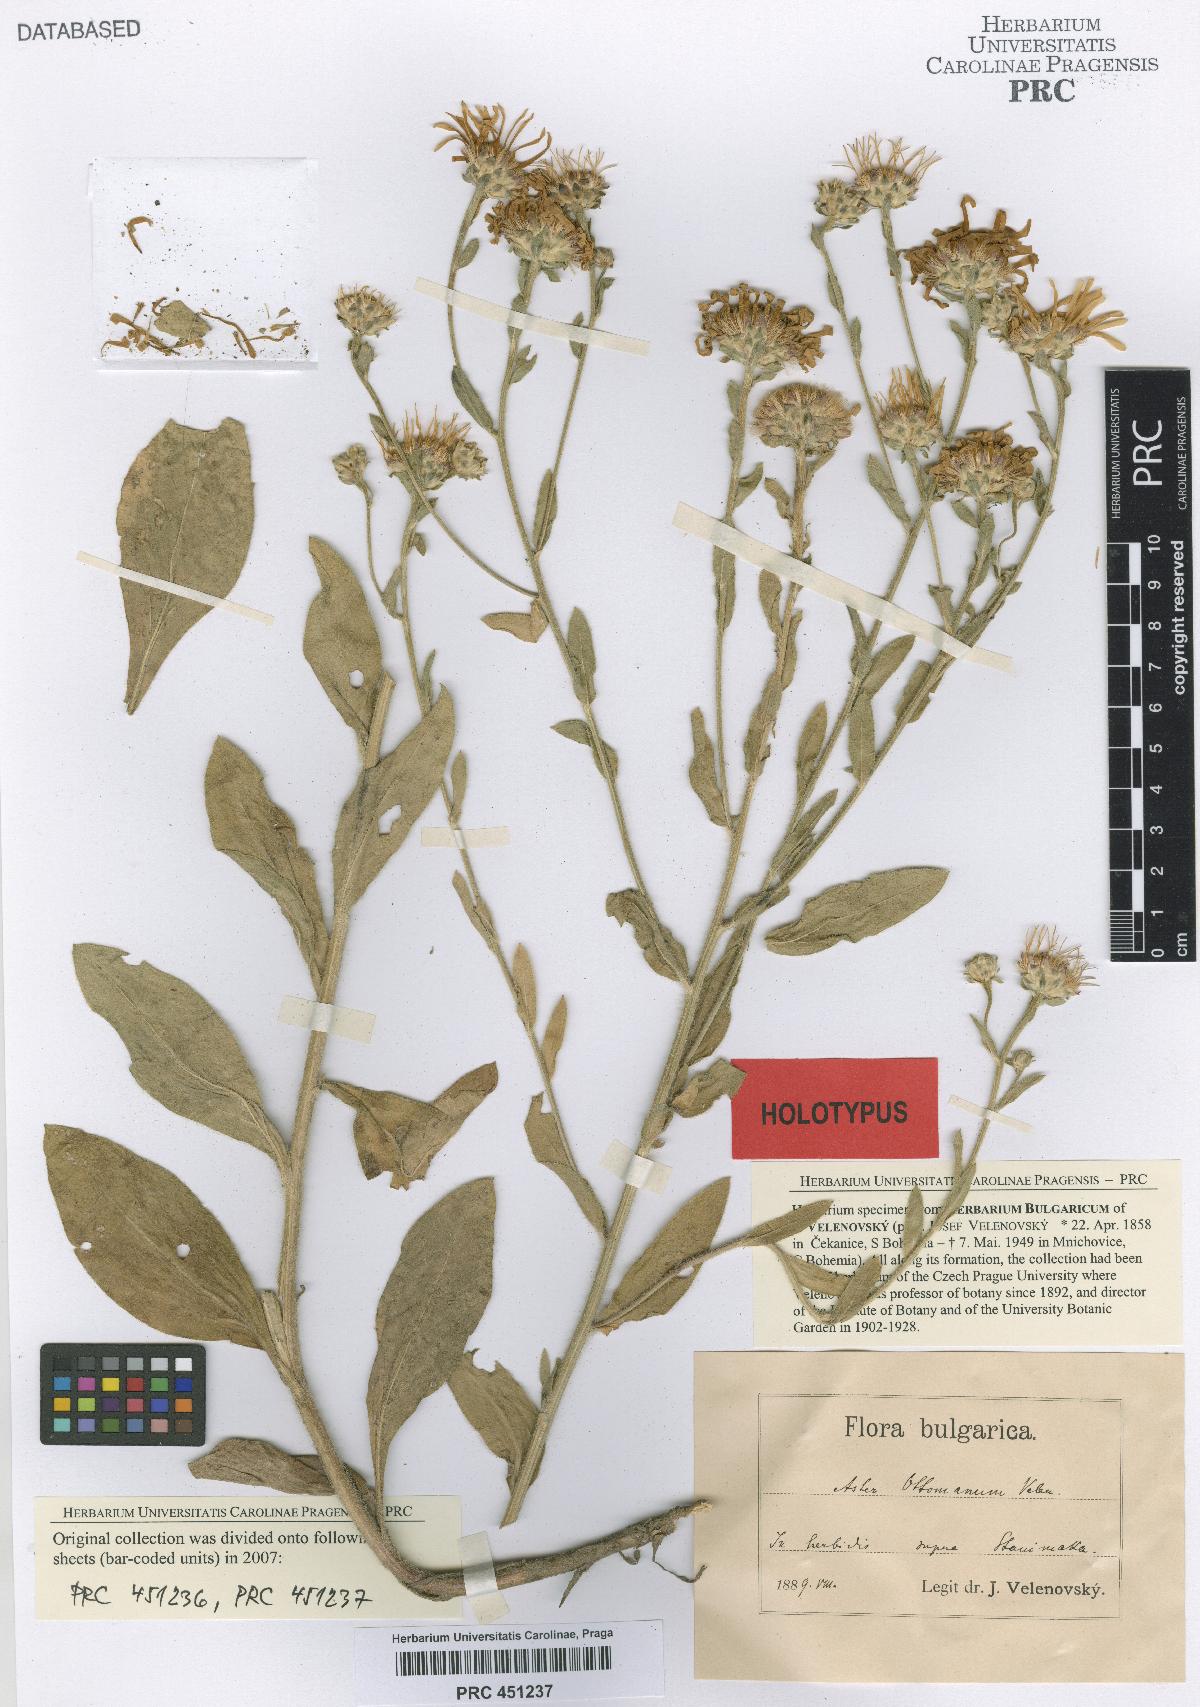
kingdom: Plantae
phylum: Tracheophyta
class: Magnoliopsida
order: Asterales
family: Asteraceae
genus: Aster
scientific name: Aster amellus
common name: European michaelmas daisy
